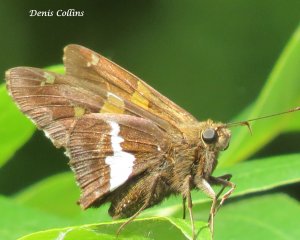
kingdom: Animalia
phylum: Arthropoda
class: Insecta
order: Lepidoptera
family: Hesperiidae
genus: Epargyreus
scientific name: Epargyreus clarus
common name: Silver-spotted Skipper
